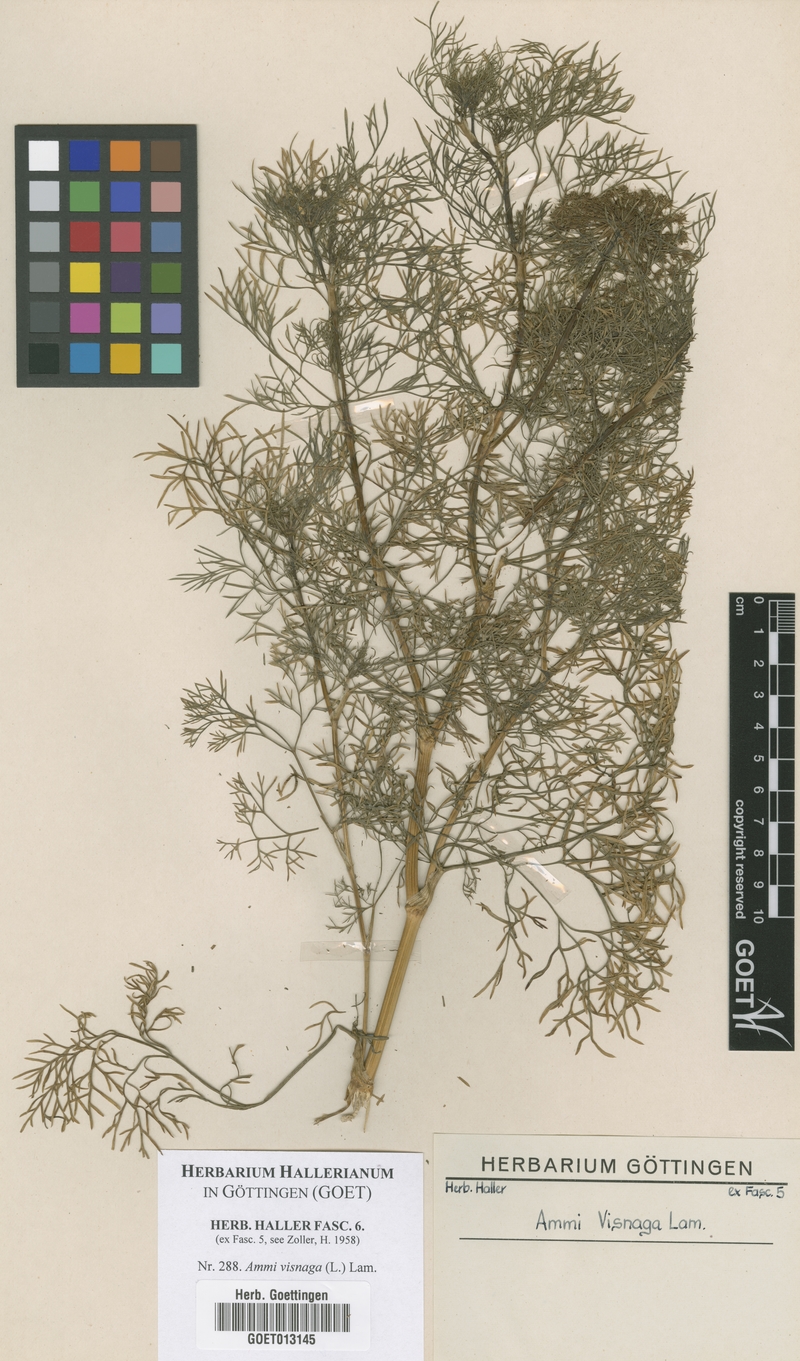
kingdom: Plantae
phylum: Tracheophyta
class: Magnoliopsida
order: Apiales
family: Apiaceae
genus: Visnaga
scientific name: Visnaga daucoides
